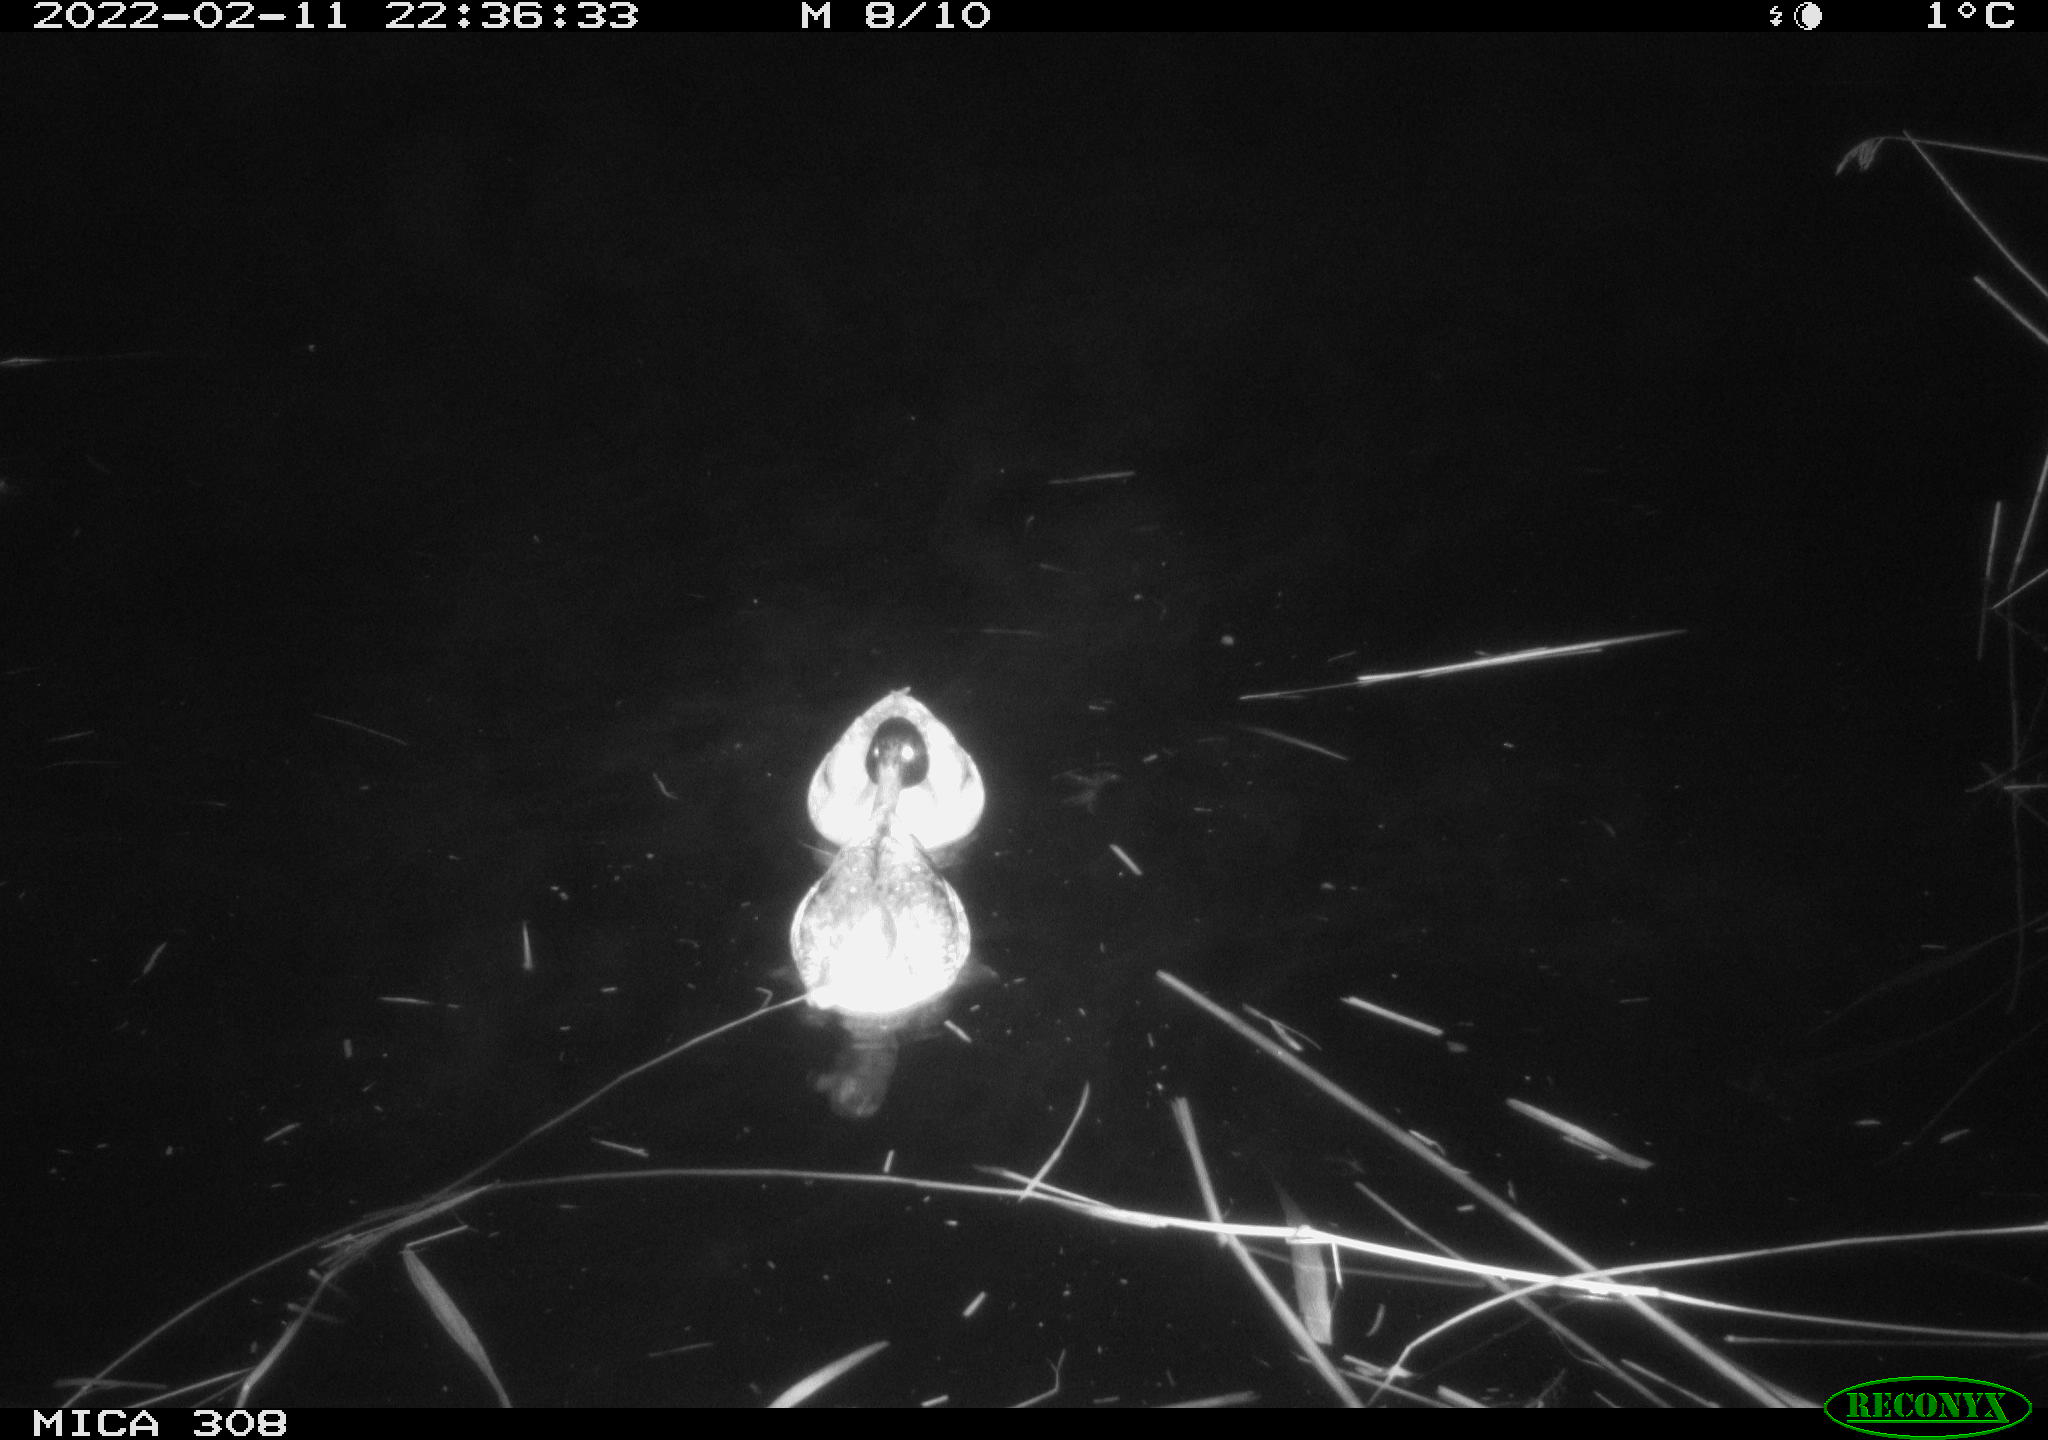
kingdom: Animalia
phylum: Chordata
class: Aves
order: Anseriformes
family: Anatidae
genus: Anas
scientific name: Anas platyrhynchos
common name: Mallard
